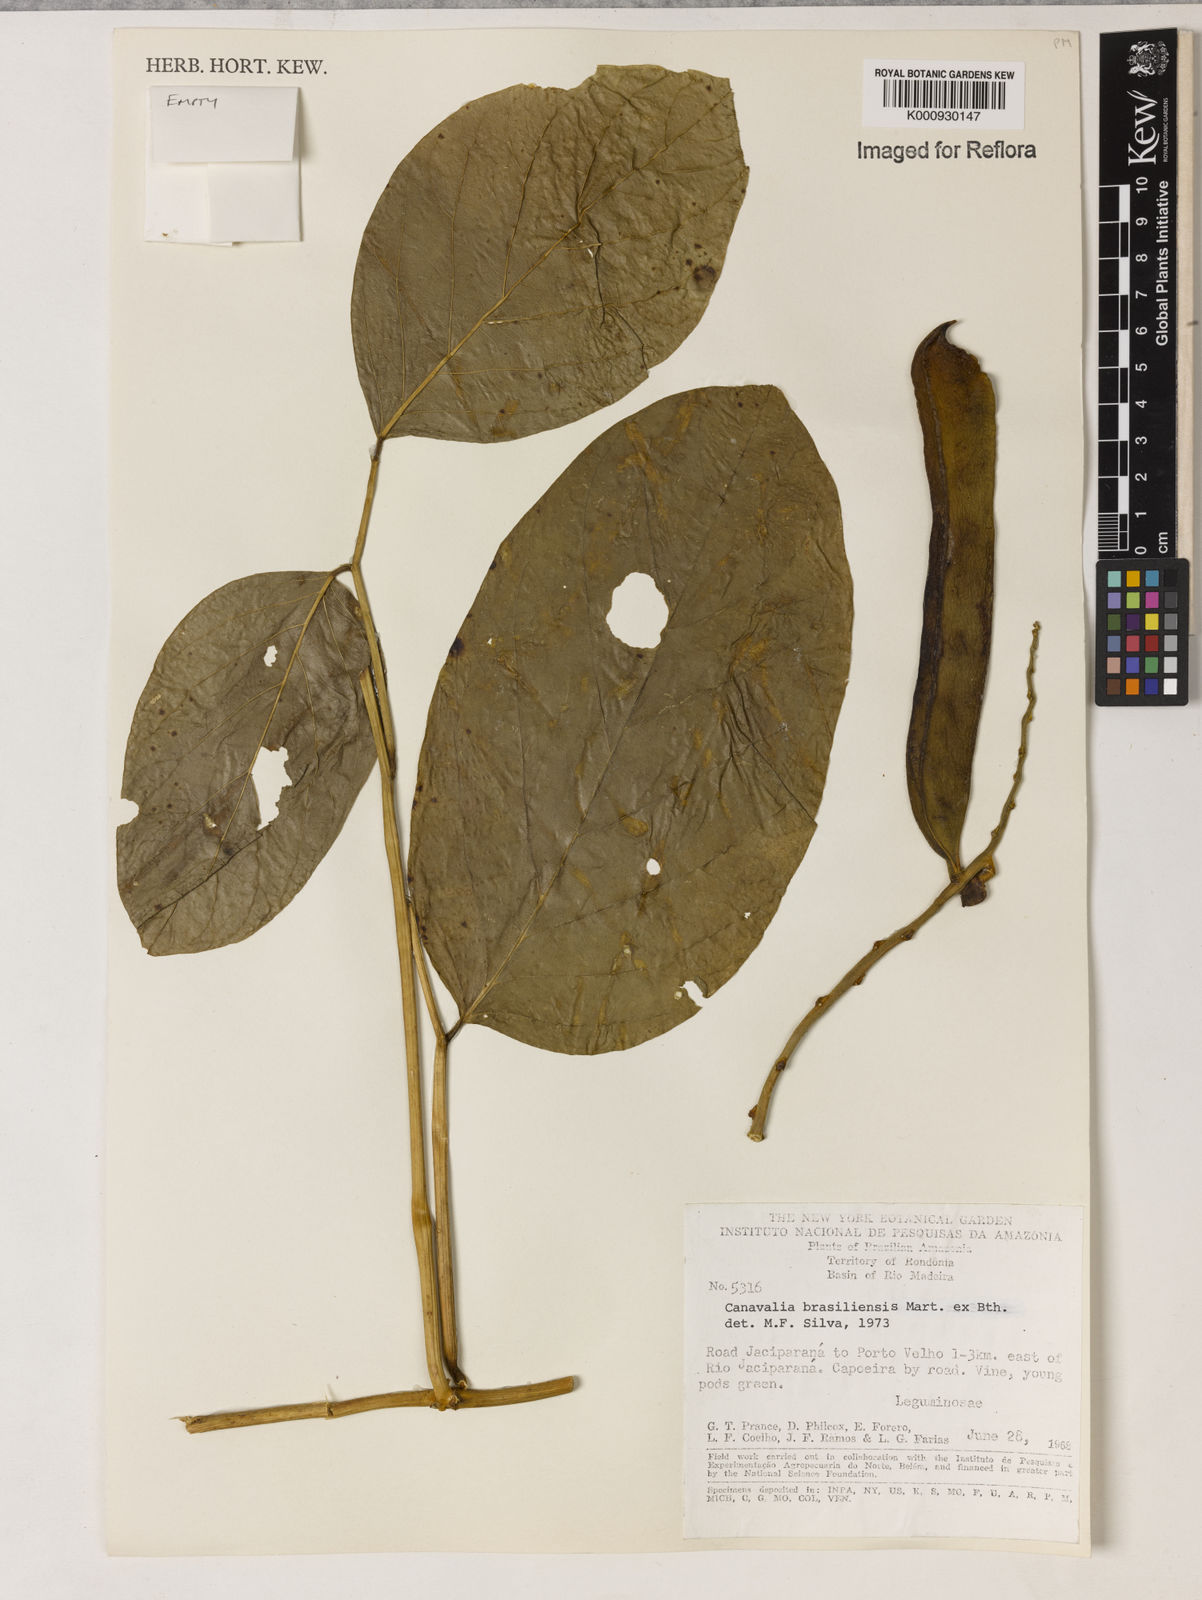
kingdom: Plantae
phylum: Tracheophyta
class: Magnoliopsida
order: Fabales
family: Fabaceae
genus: Canavalia
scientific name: Canavalia brasiliensis
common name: Barbicou-bean
